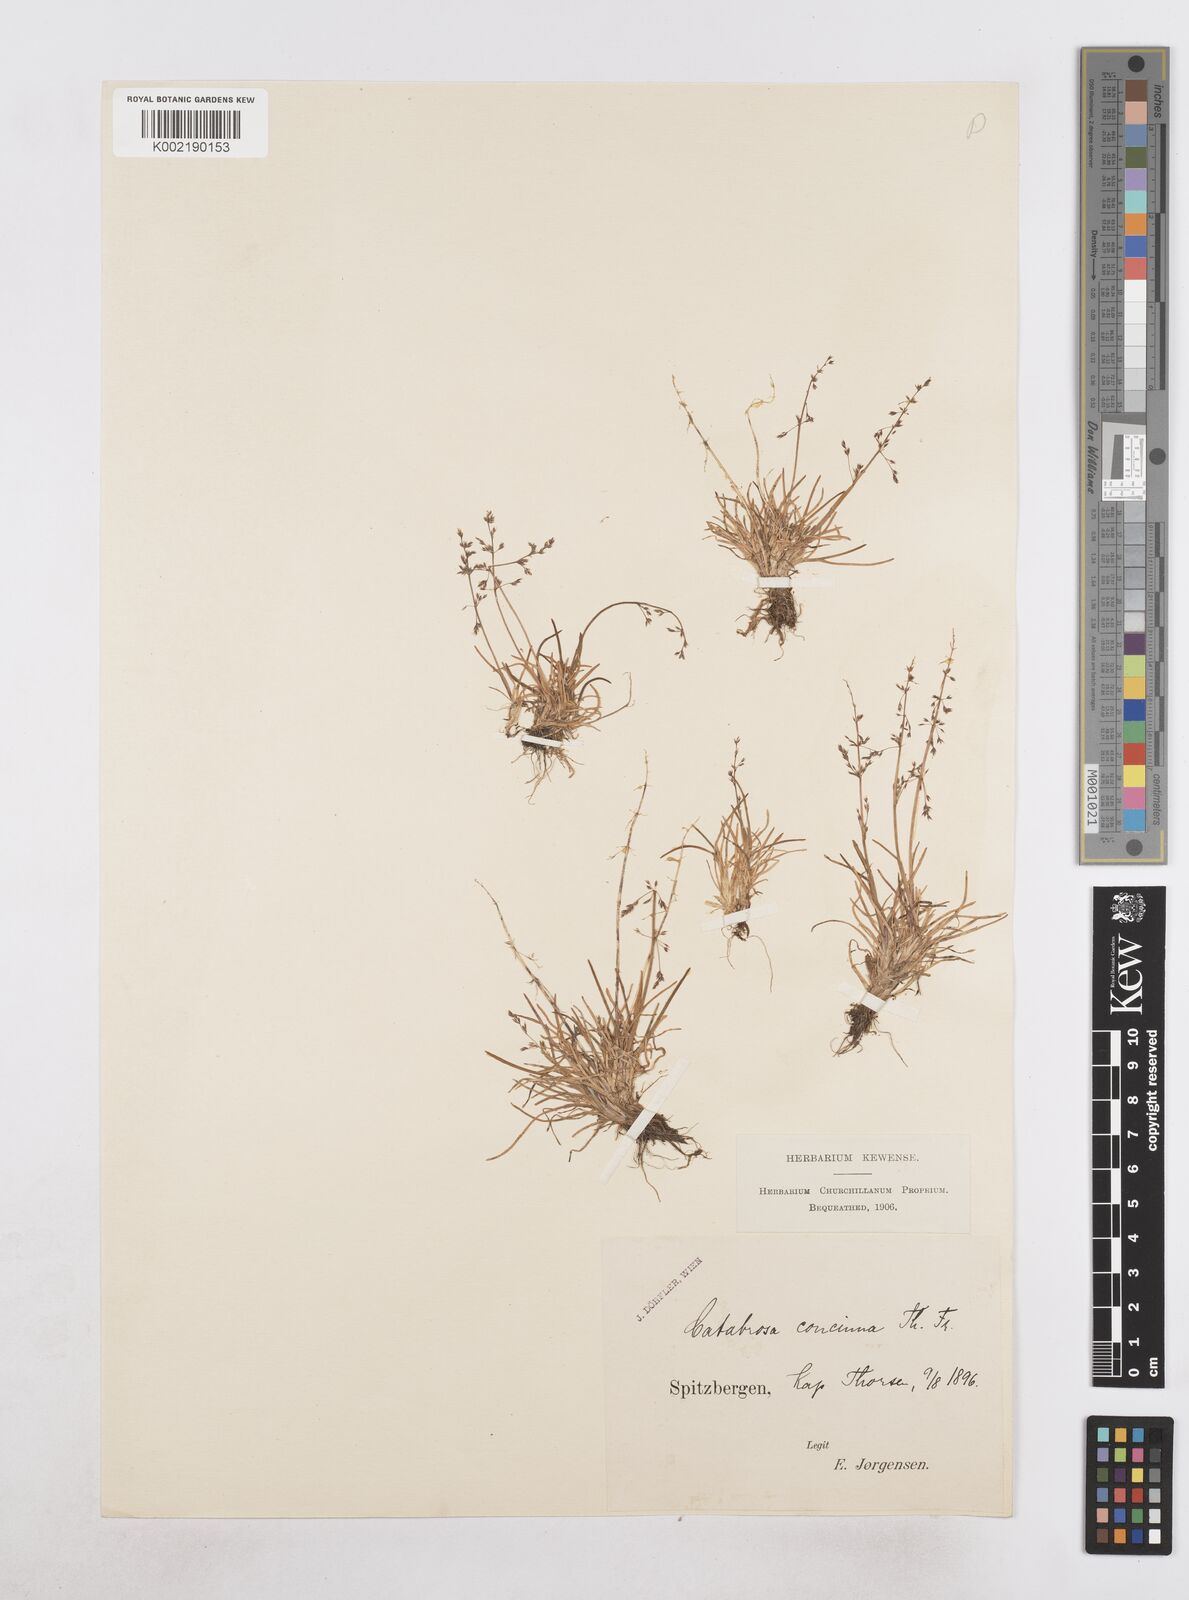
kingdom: Plantae
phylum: Tracheophyta
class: Liliopsida
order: Poales
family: Poaceae
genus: Phippsia
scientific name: Phippsia concinna
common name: Snowgrass
